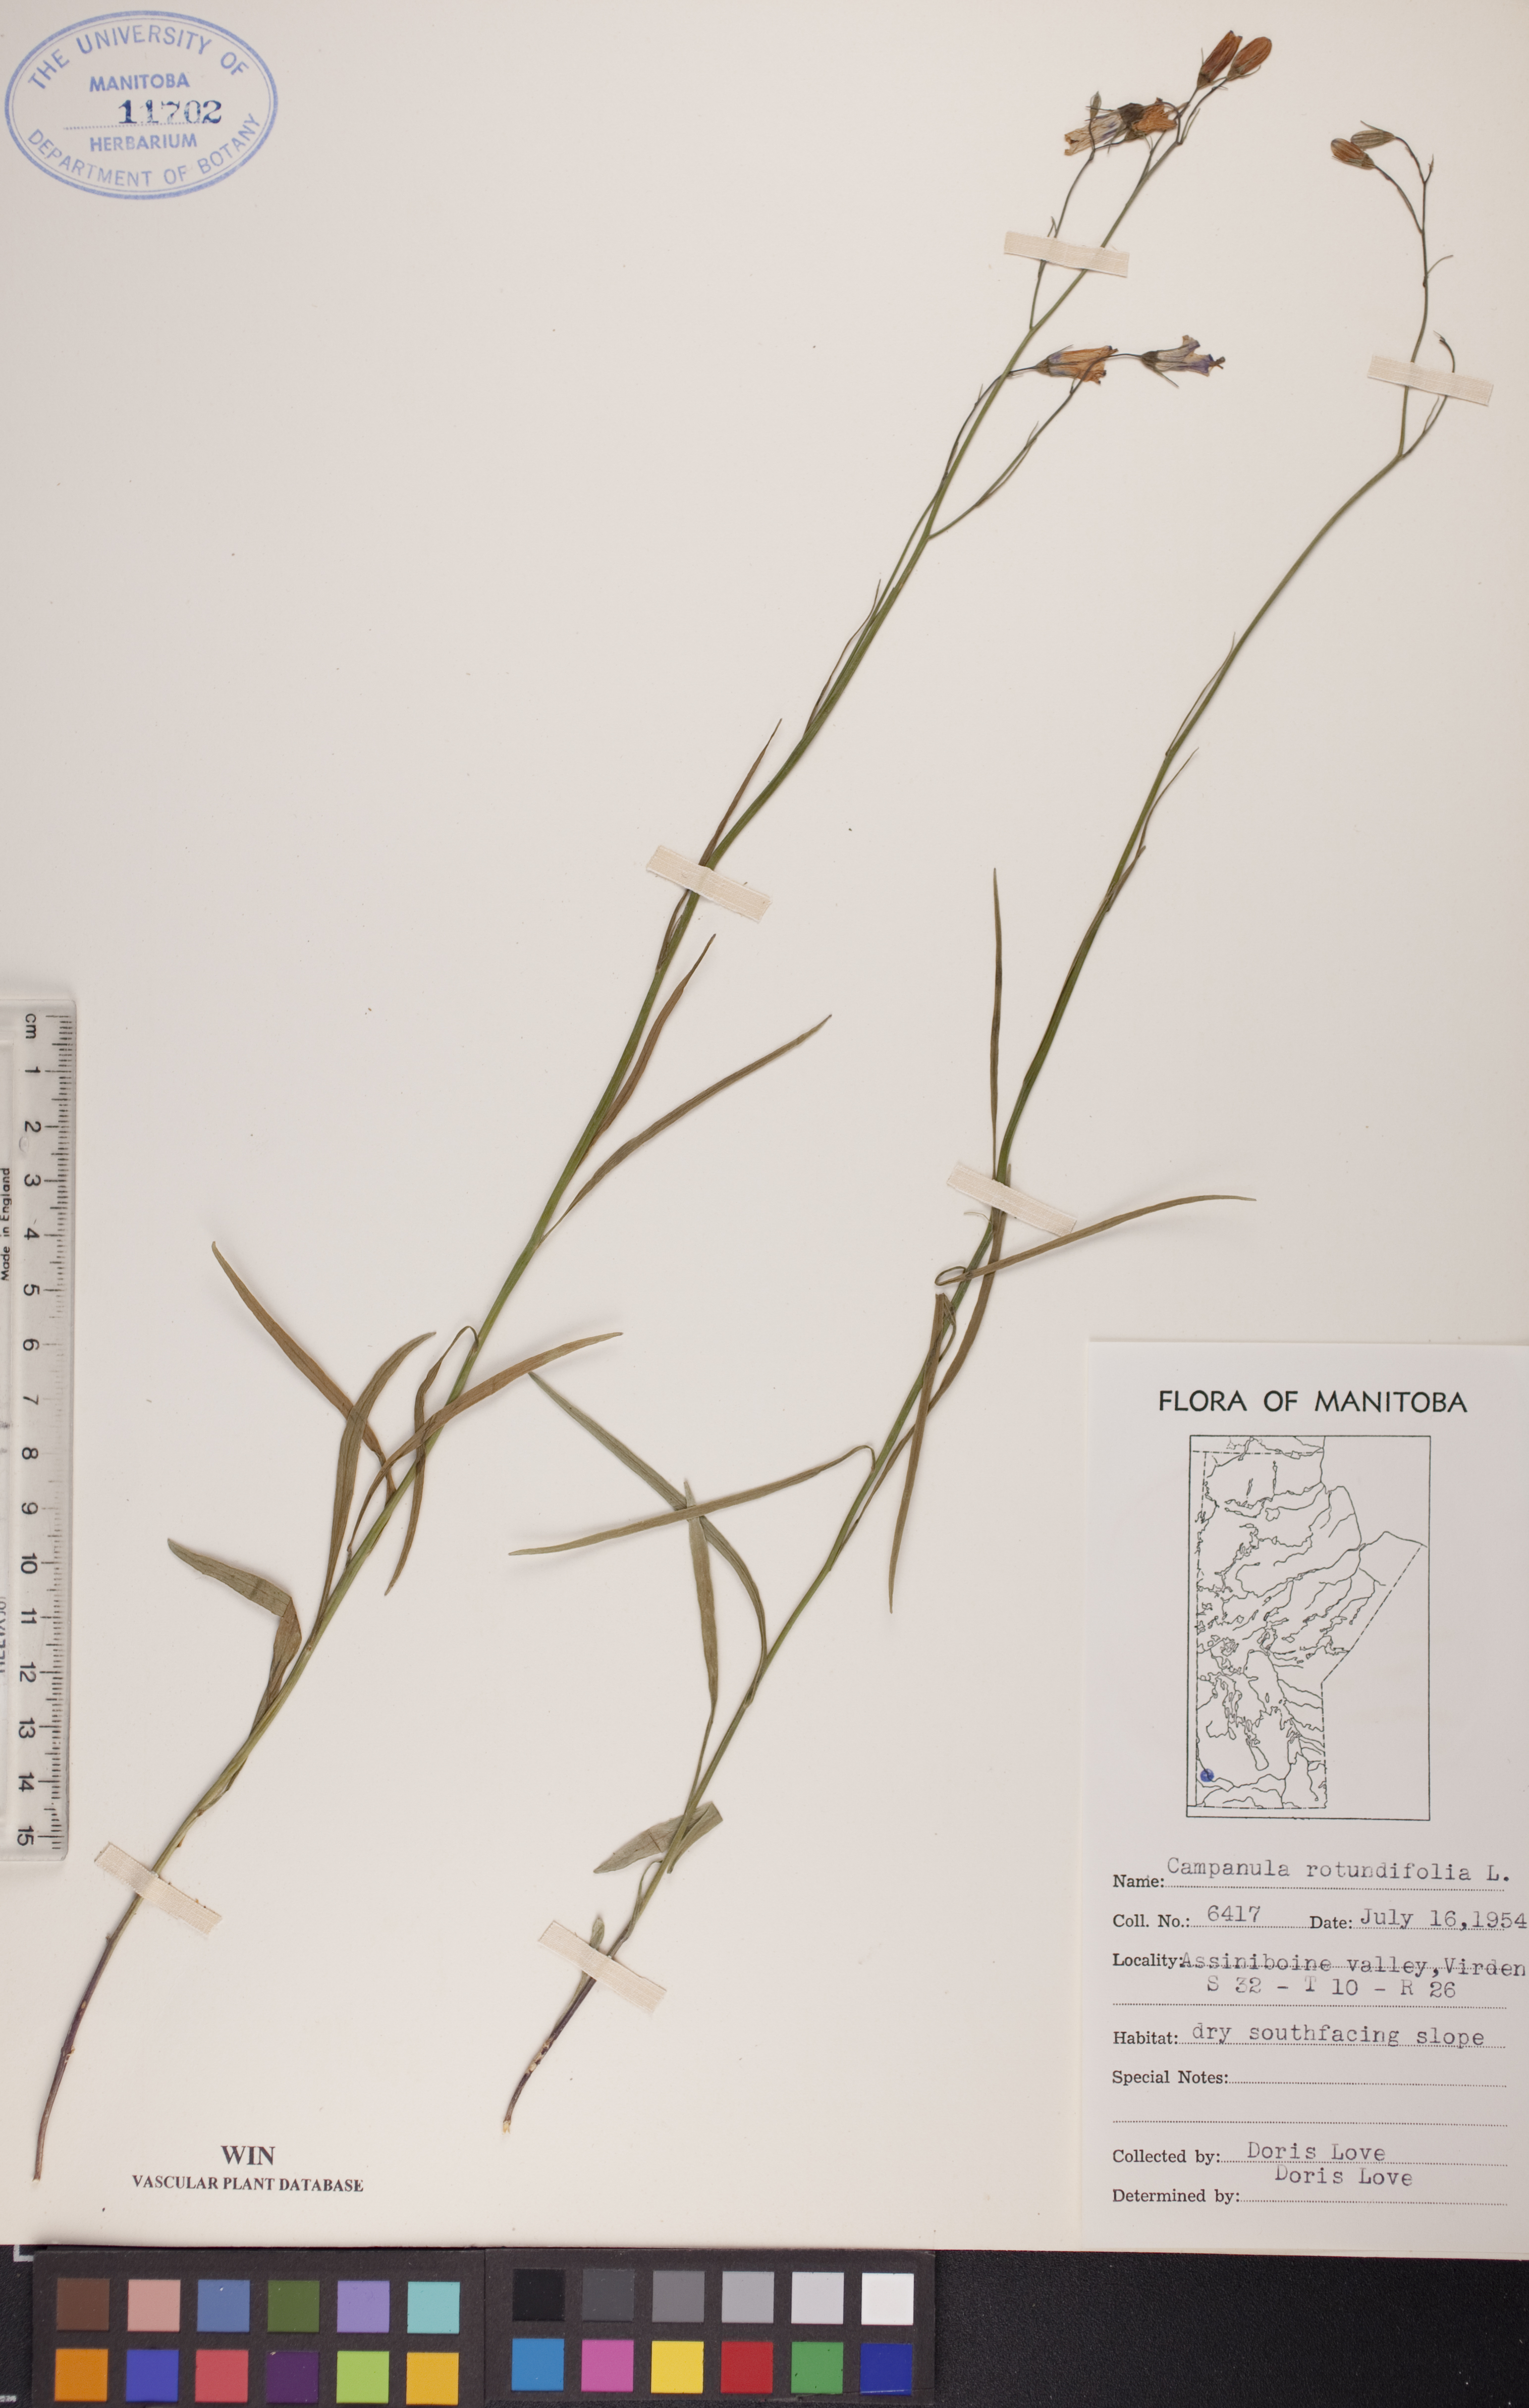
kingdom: Plantae
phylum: Tracheophyta
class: Magnoliopsida
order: Asterales
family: Campanulaceae
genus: Campanula
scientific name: Campanula rotundifolia
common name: Harebell
